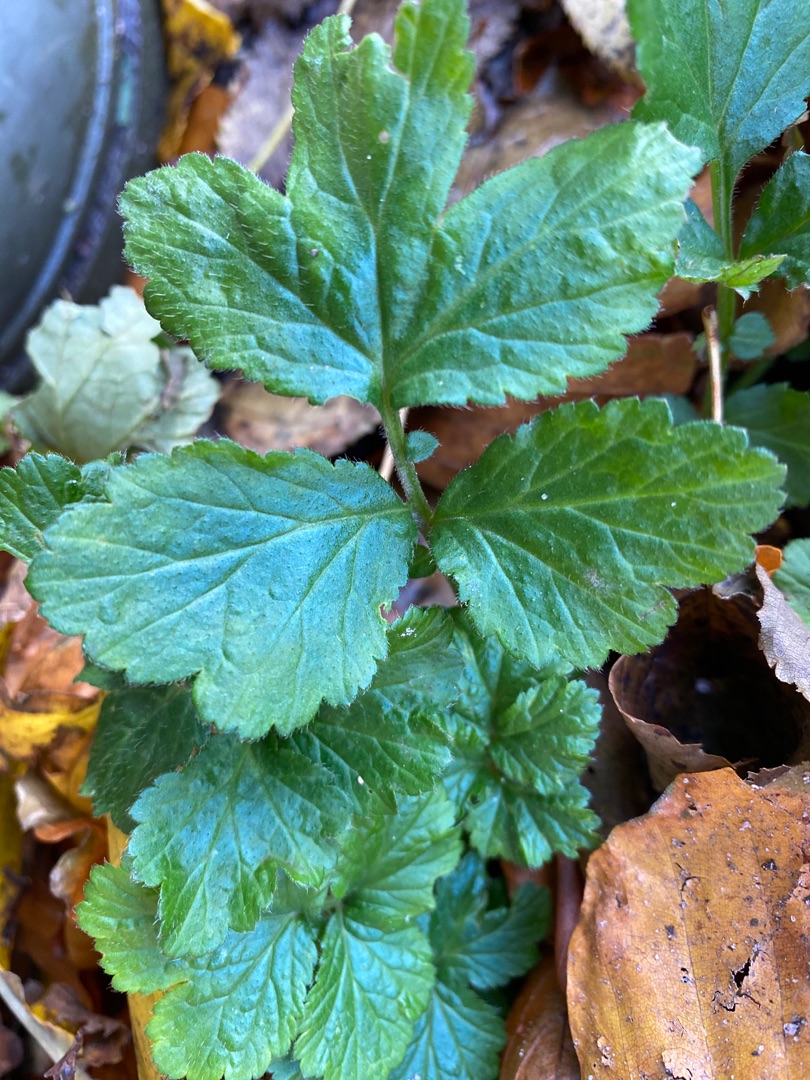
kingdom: Plantae
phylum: Tracheophyta
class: Magnoliopsida
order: Rosales
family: Rosaceae
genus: Geum
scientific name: Geum urbanum
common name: Feber-nellikerod
